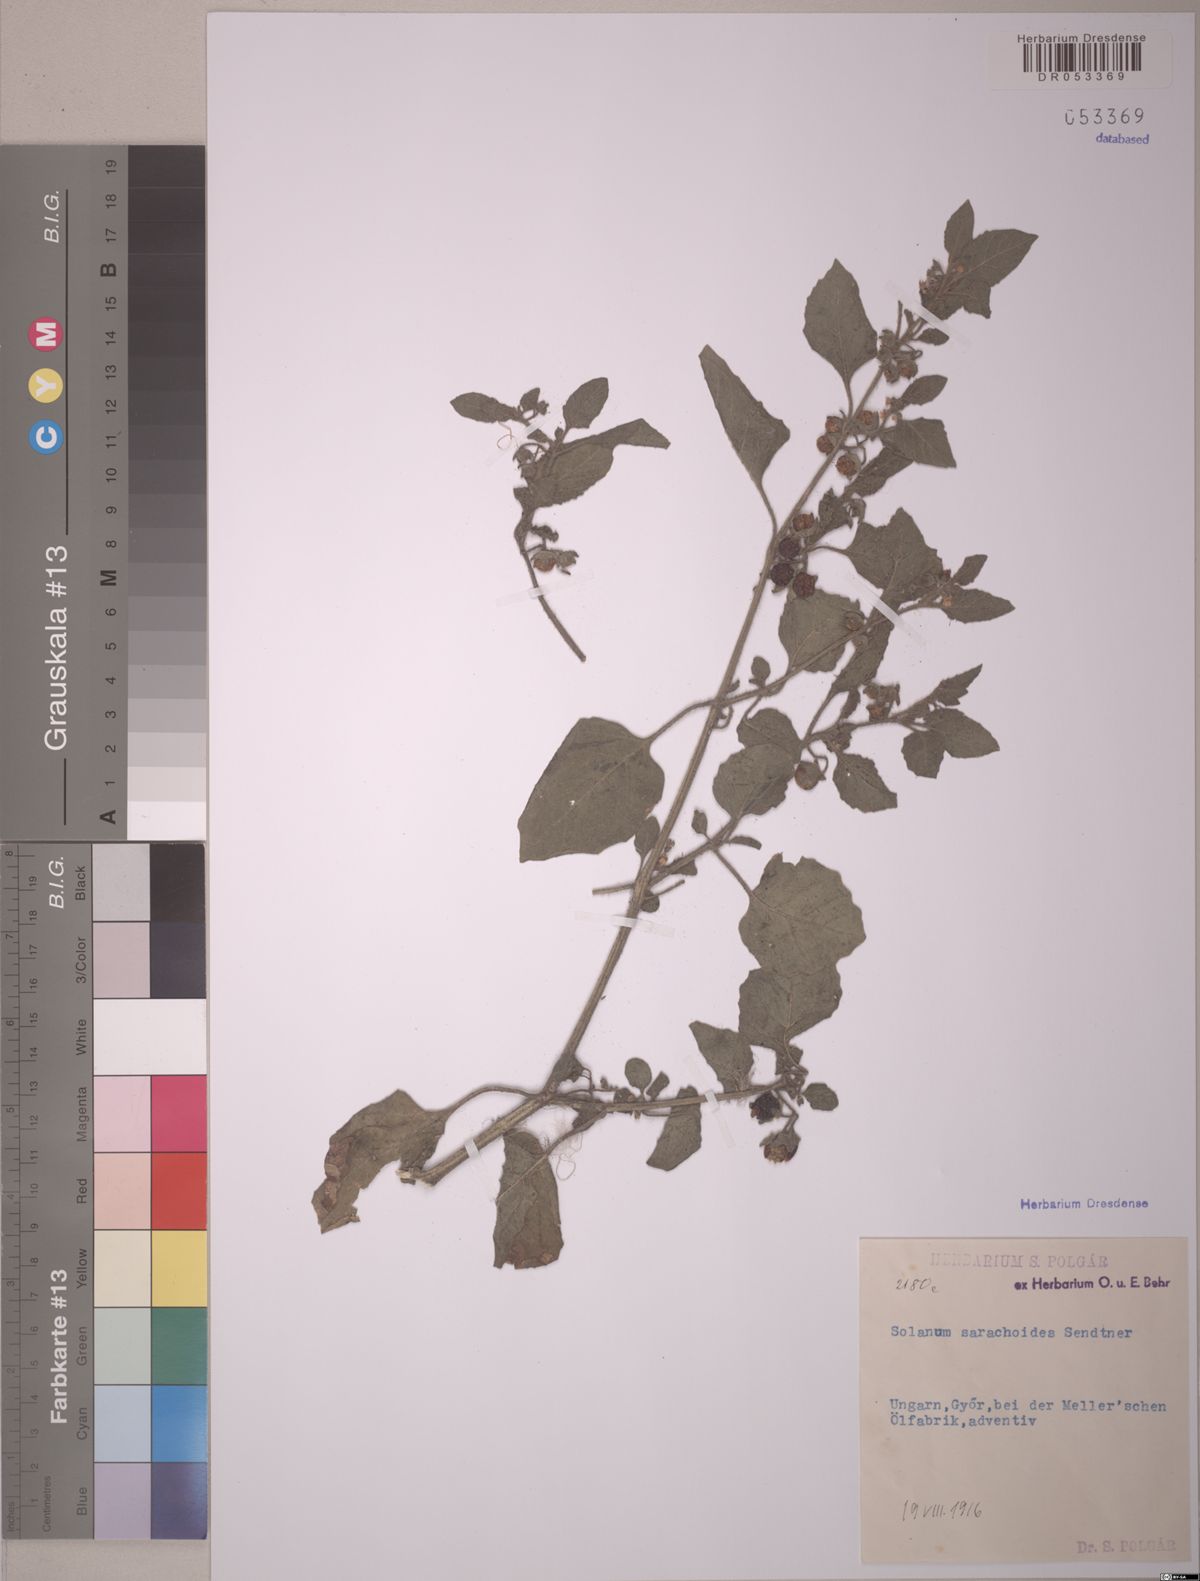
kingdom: Plantae
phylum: Tracheophyta
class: Magnoliopsida
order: Solanales
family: Solanaceae
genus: Solanum
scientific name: Solanum sarrachoides
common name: Leafy-fruited nightshade
